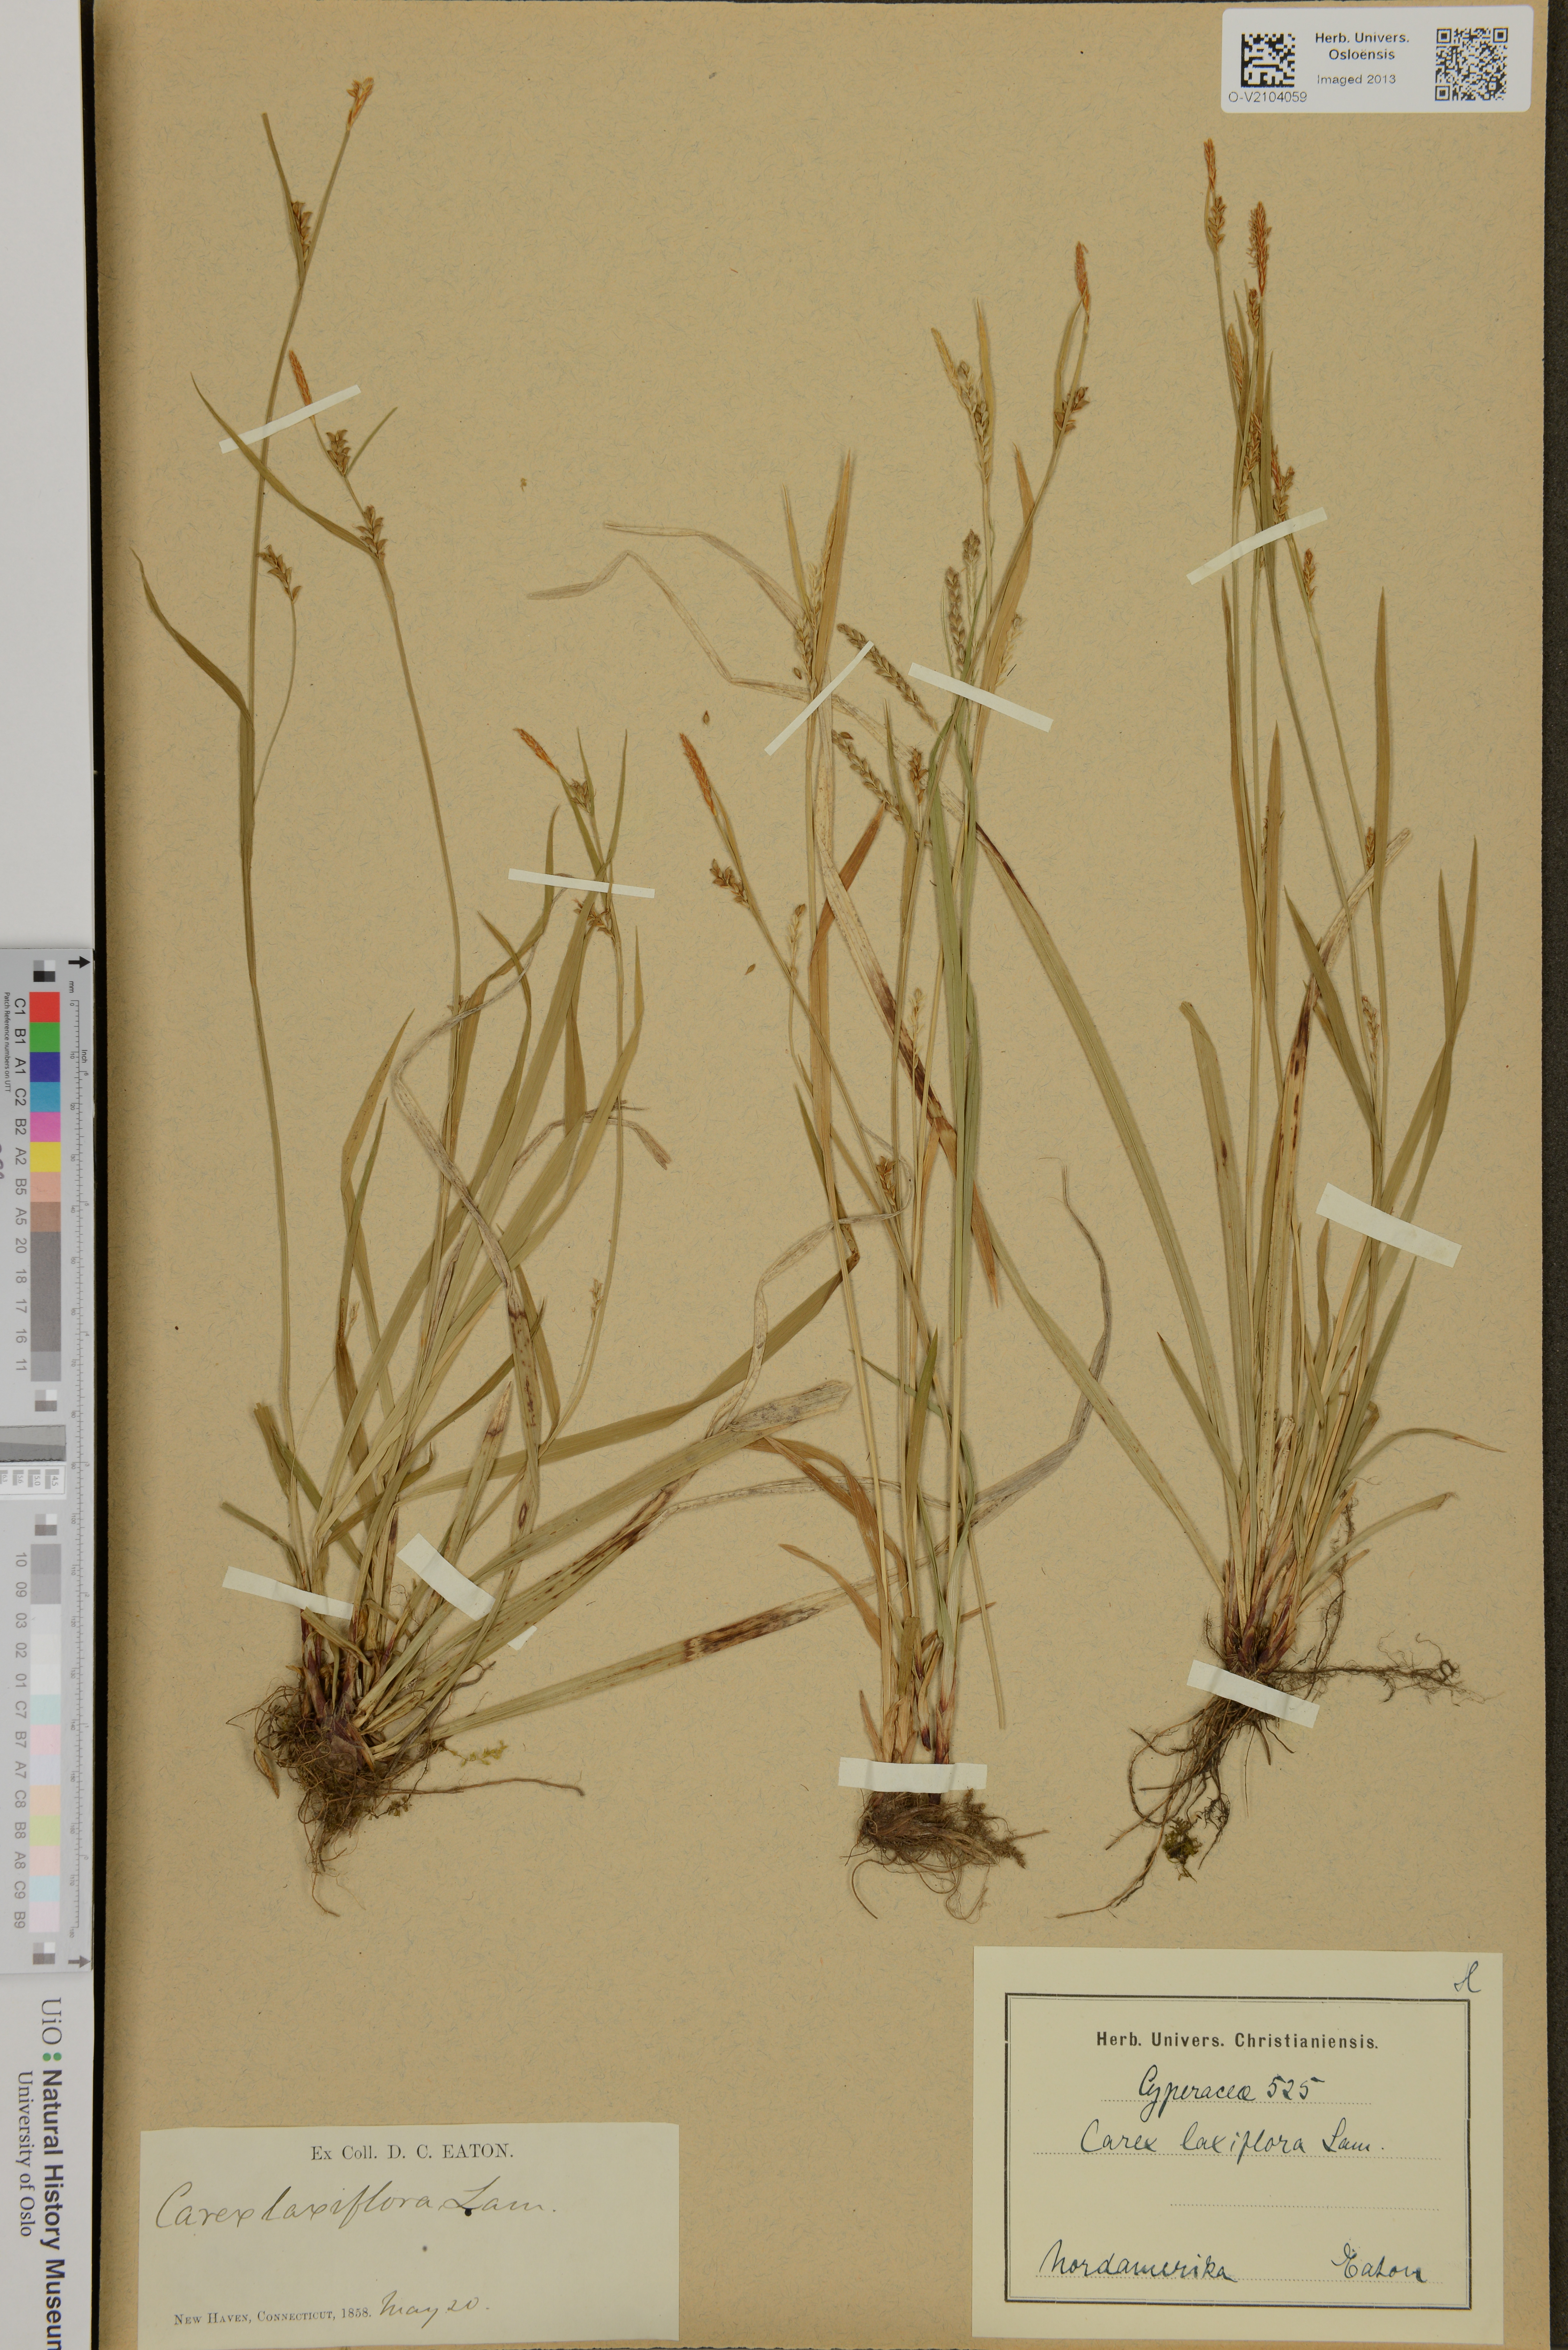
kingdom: Plantae
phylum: Tracheophyta
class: Liliopsida
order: Poales
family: Cyperaceae
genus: Carex
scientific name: Carex laxiflora
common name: Beech wood sedge
